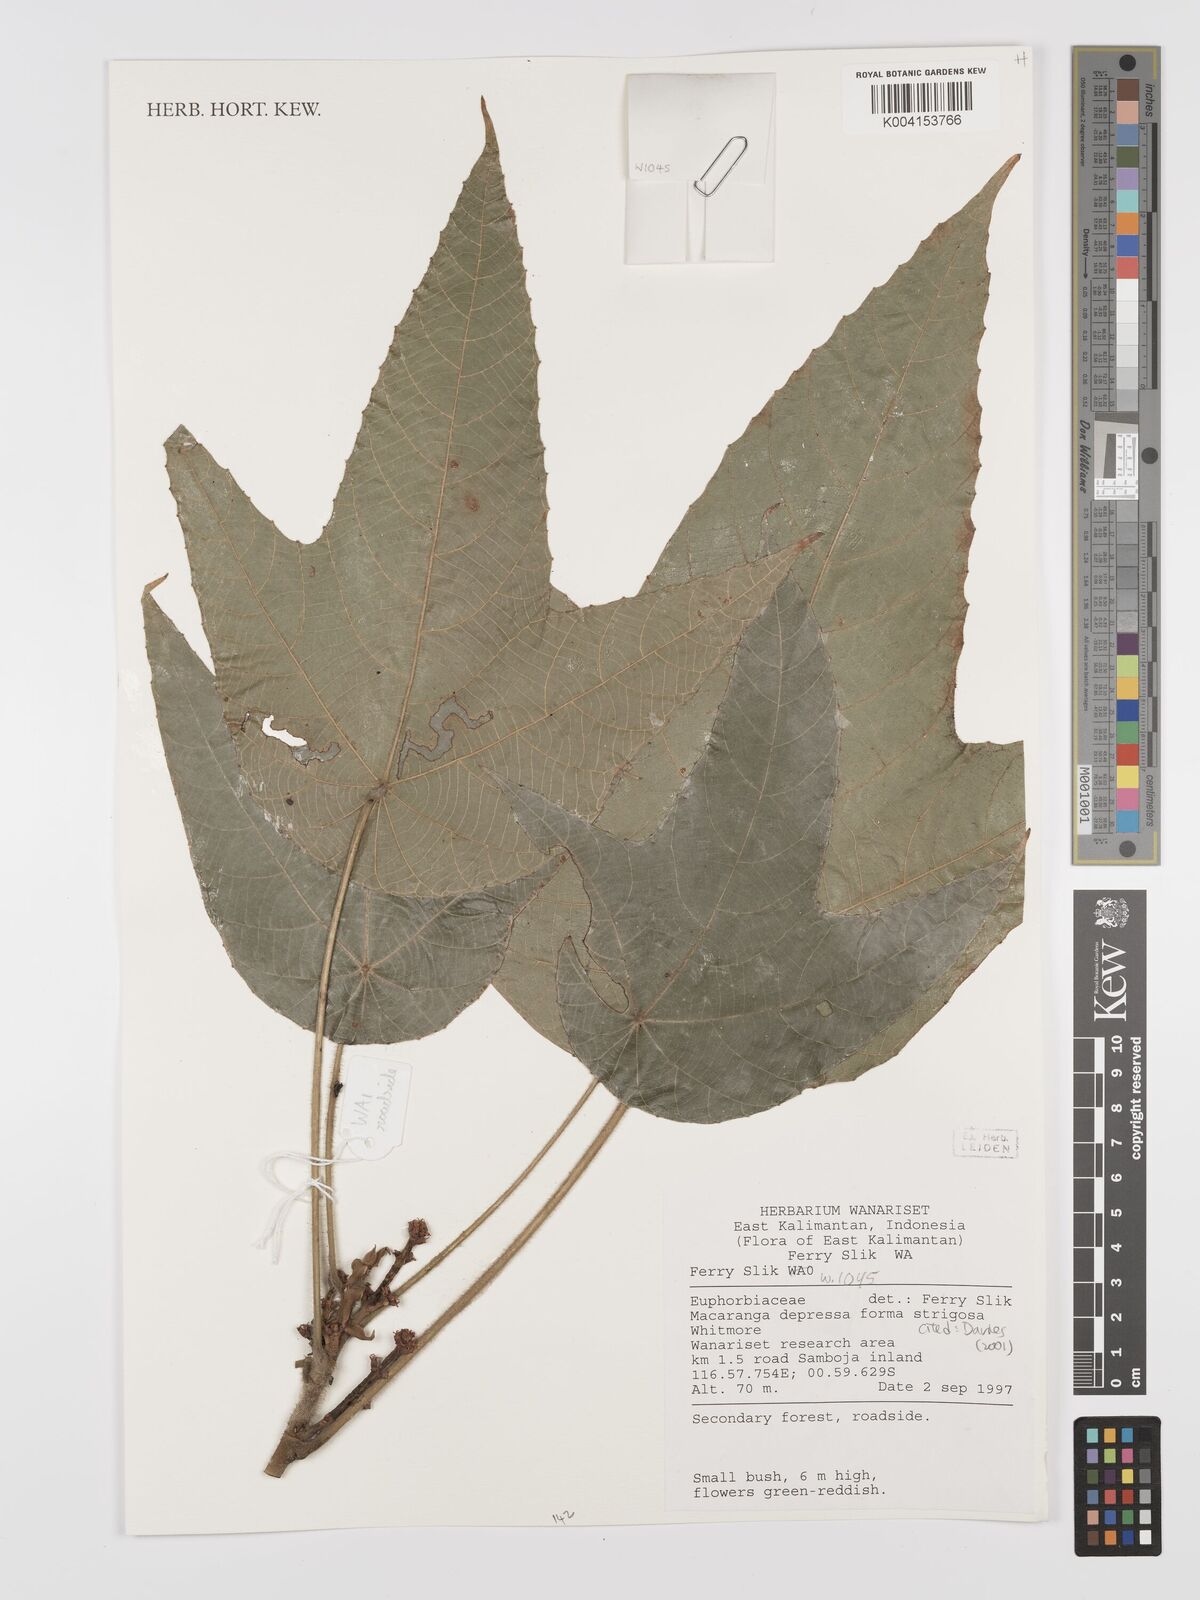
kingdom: Plantae
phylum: Tracheophyta
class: Magnoliopsida
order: Malpighiales
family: Euphorbiaceae
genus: Macaranga
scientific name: Macaranga depressa
